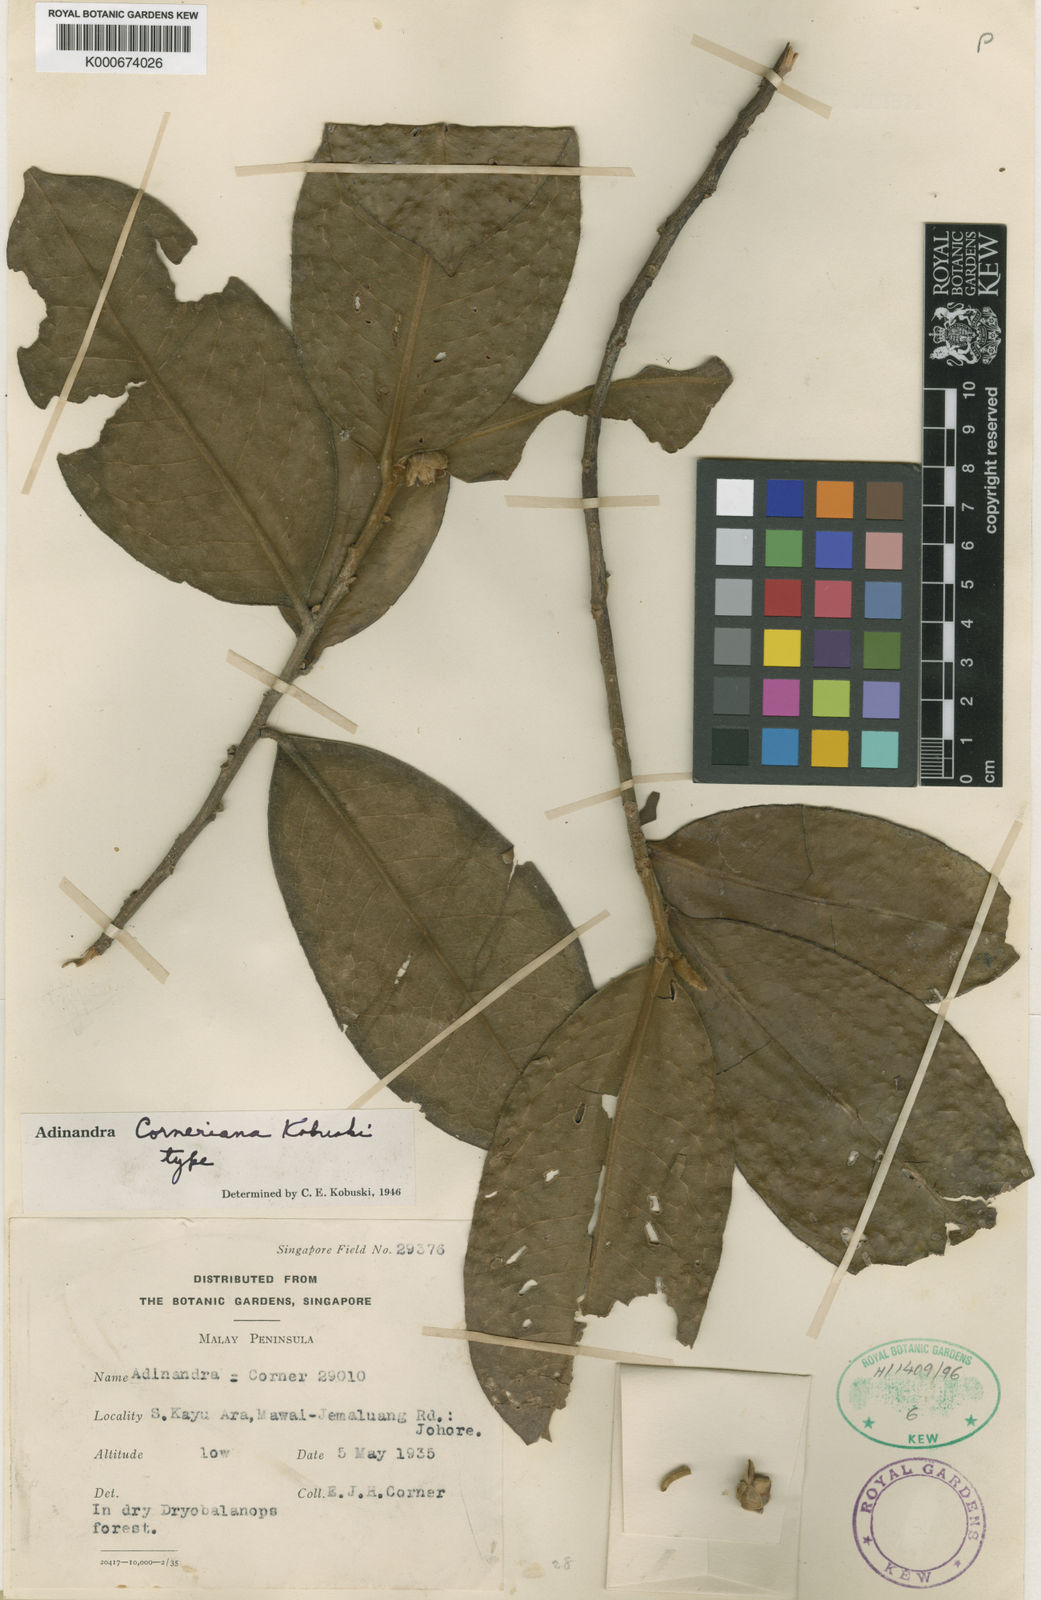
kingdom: Plantae
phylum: Tracheophyta
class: Magnoliopsida
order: Ericales
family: Pentaphylacaceae
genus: Adinandra
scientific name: Adinandra corneriana
